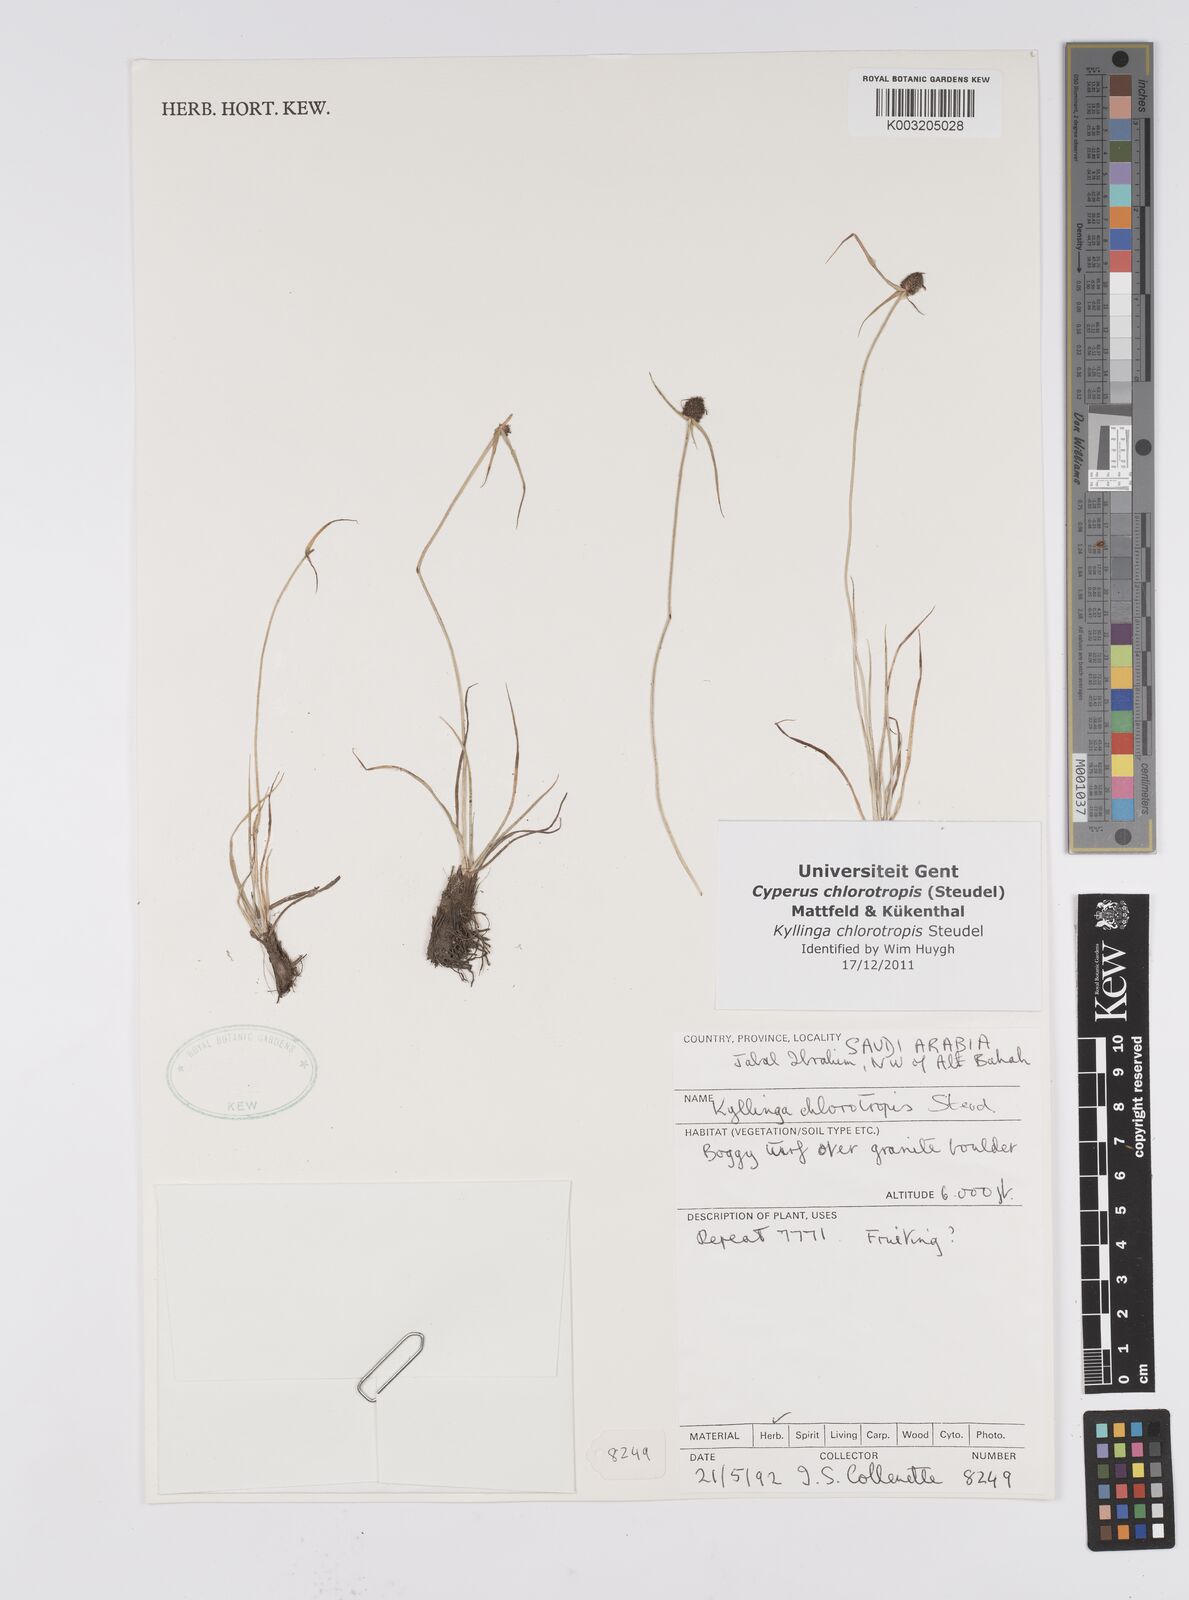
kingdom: Plantae
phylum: Tracheophyta
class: Liliopsida
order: Poales
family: Cyperaceae
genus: Cyperus
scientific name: Cyperus chlorotropis
